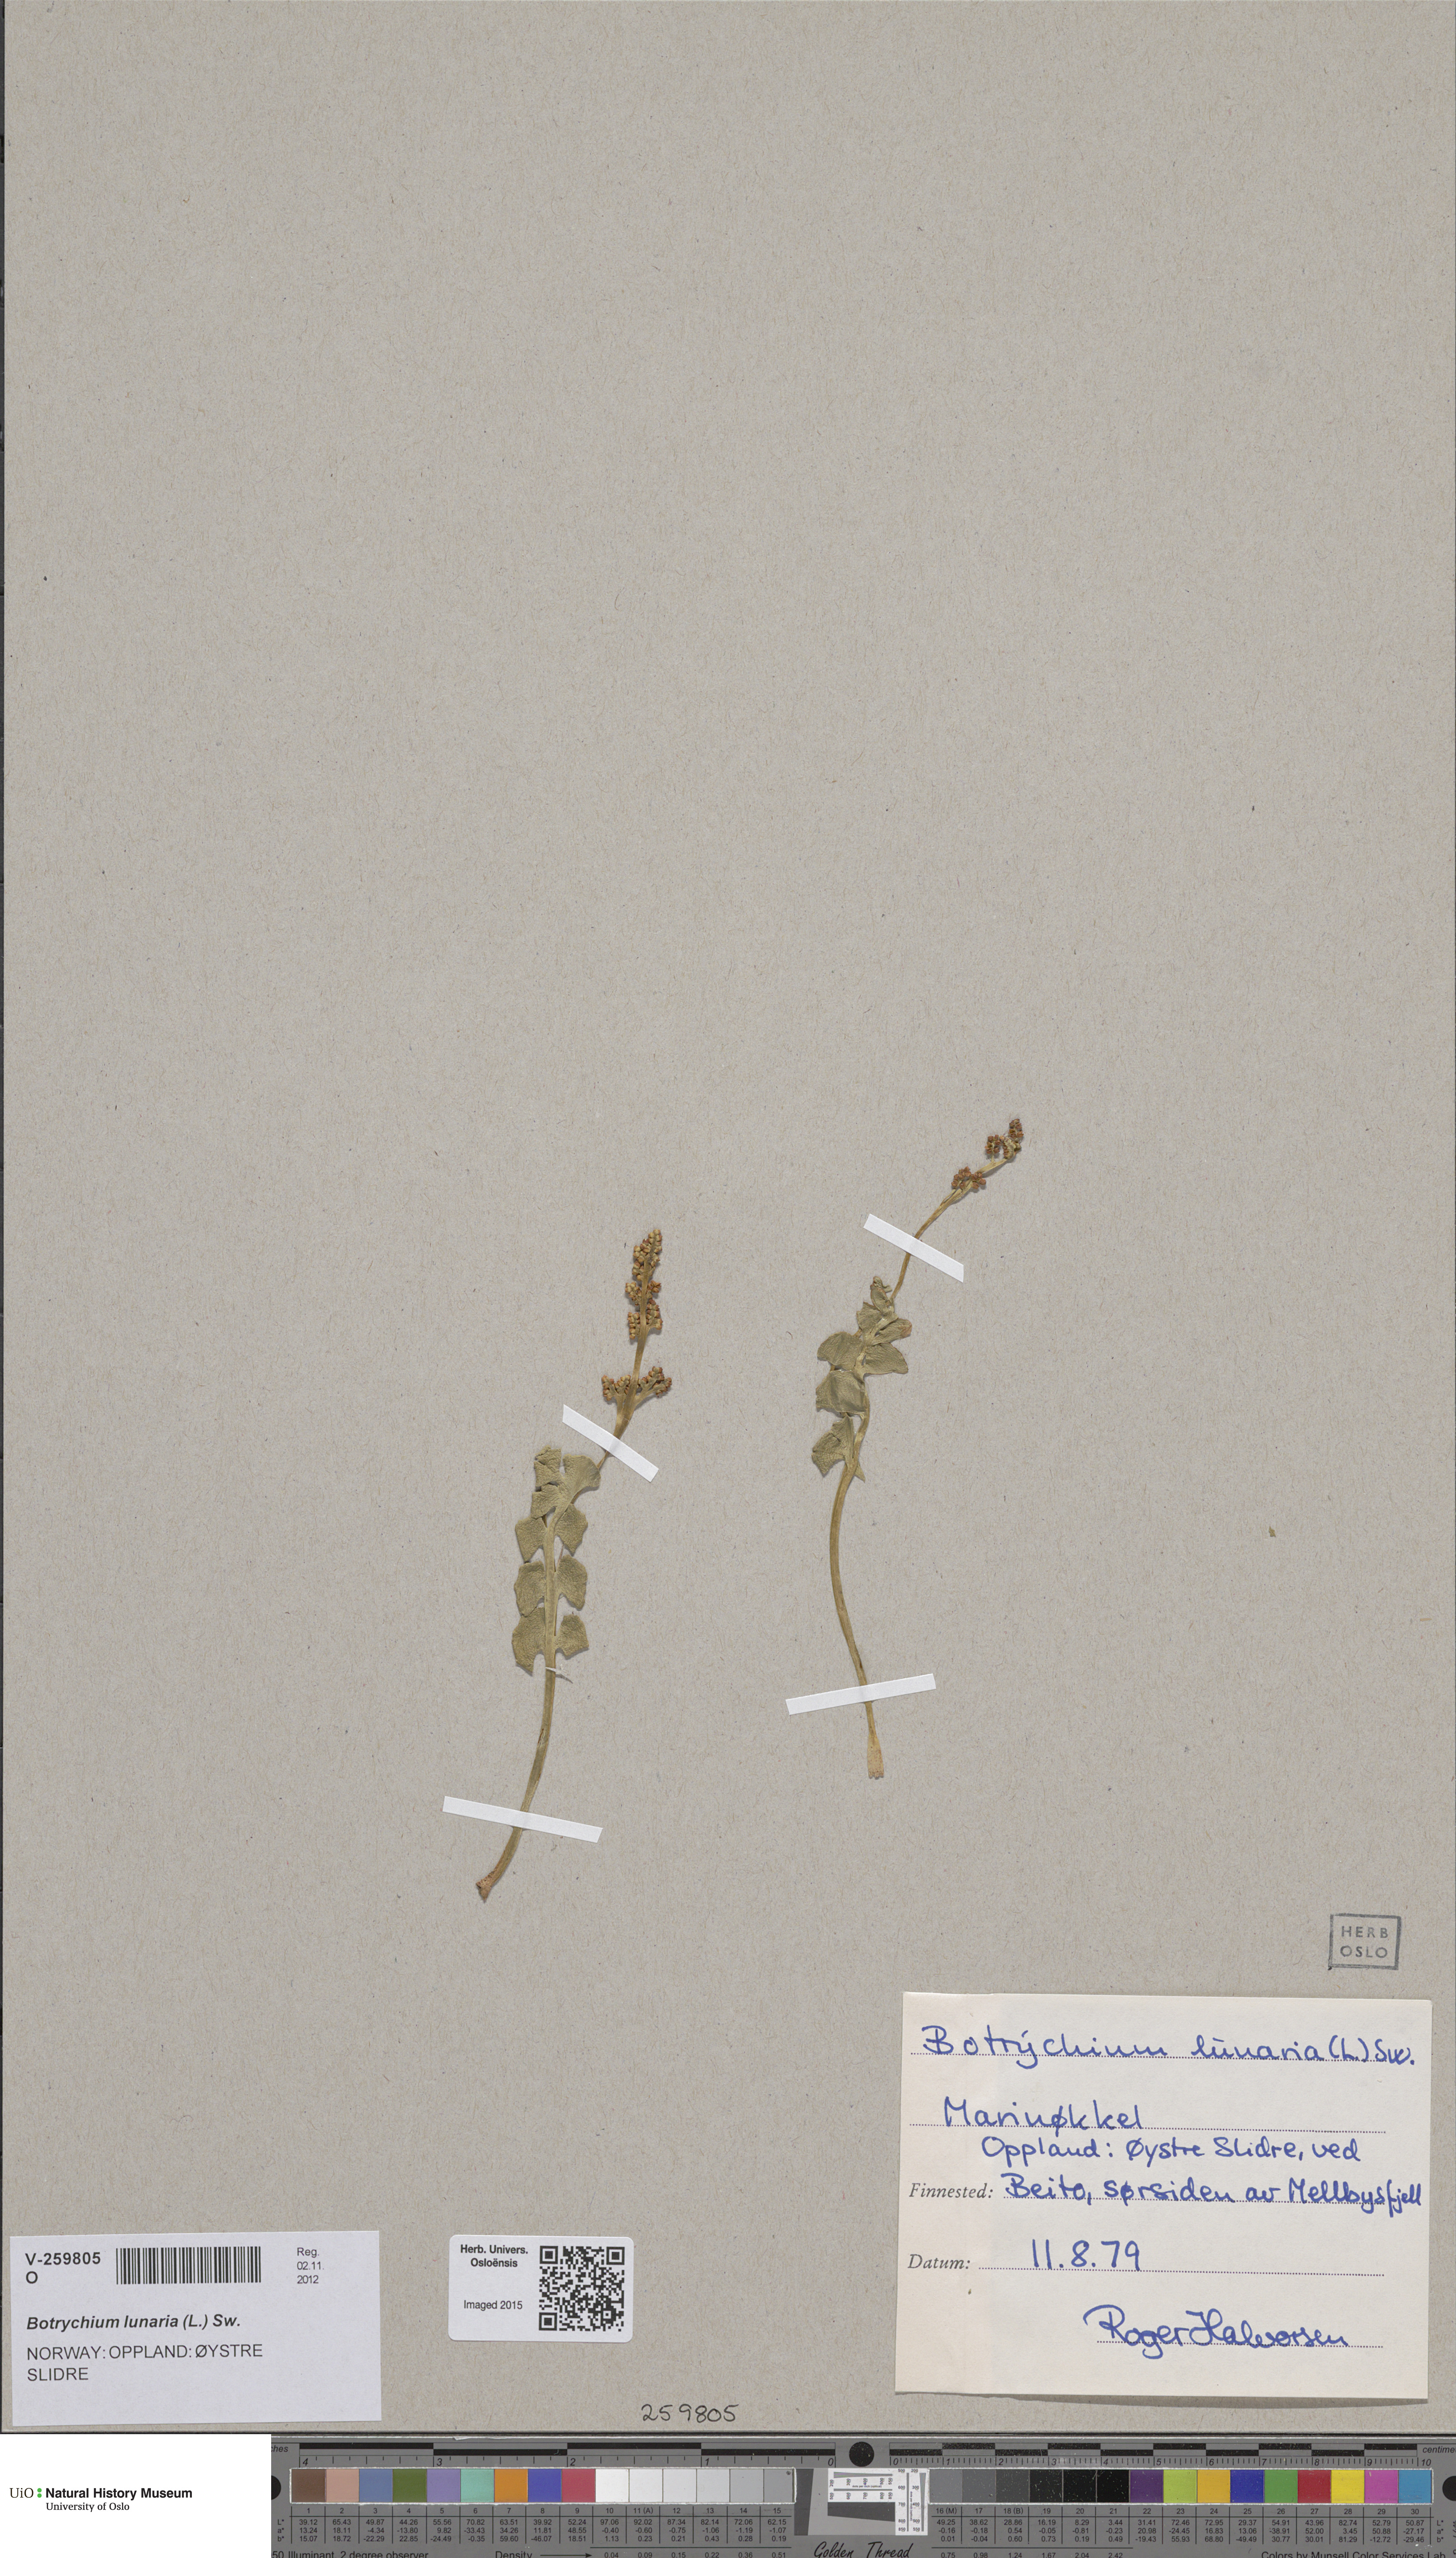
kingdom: Plantae
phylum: Tracheophyta
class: Polypodiopsida
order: Ophioglossales
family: Ophioglossaceae
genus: Botrychium
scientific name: Botrychium lunaria
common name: Moonwort
